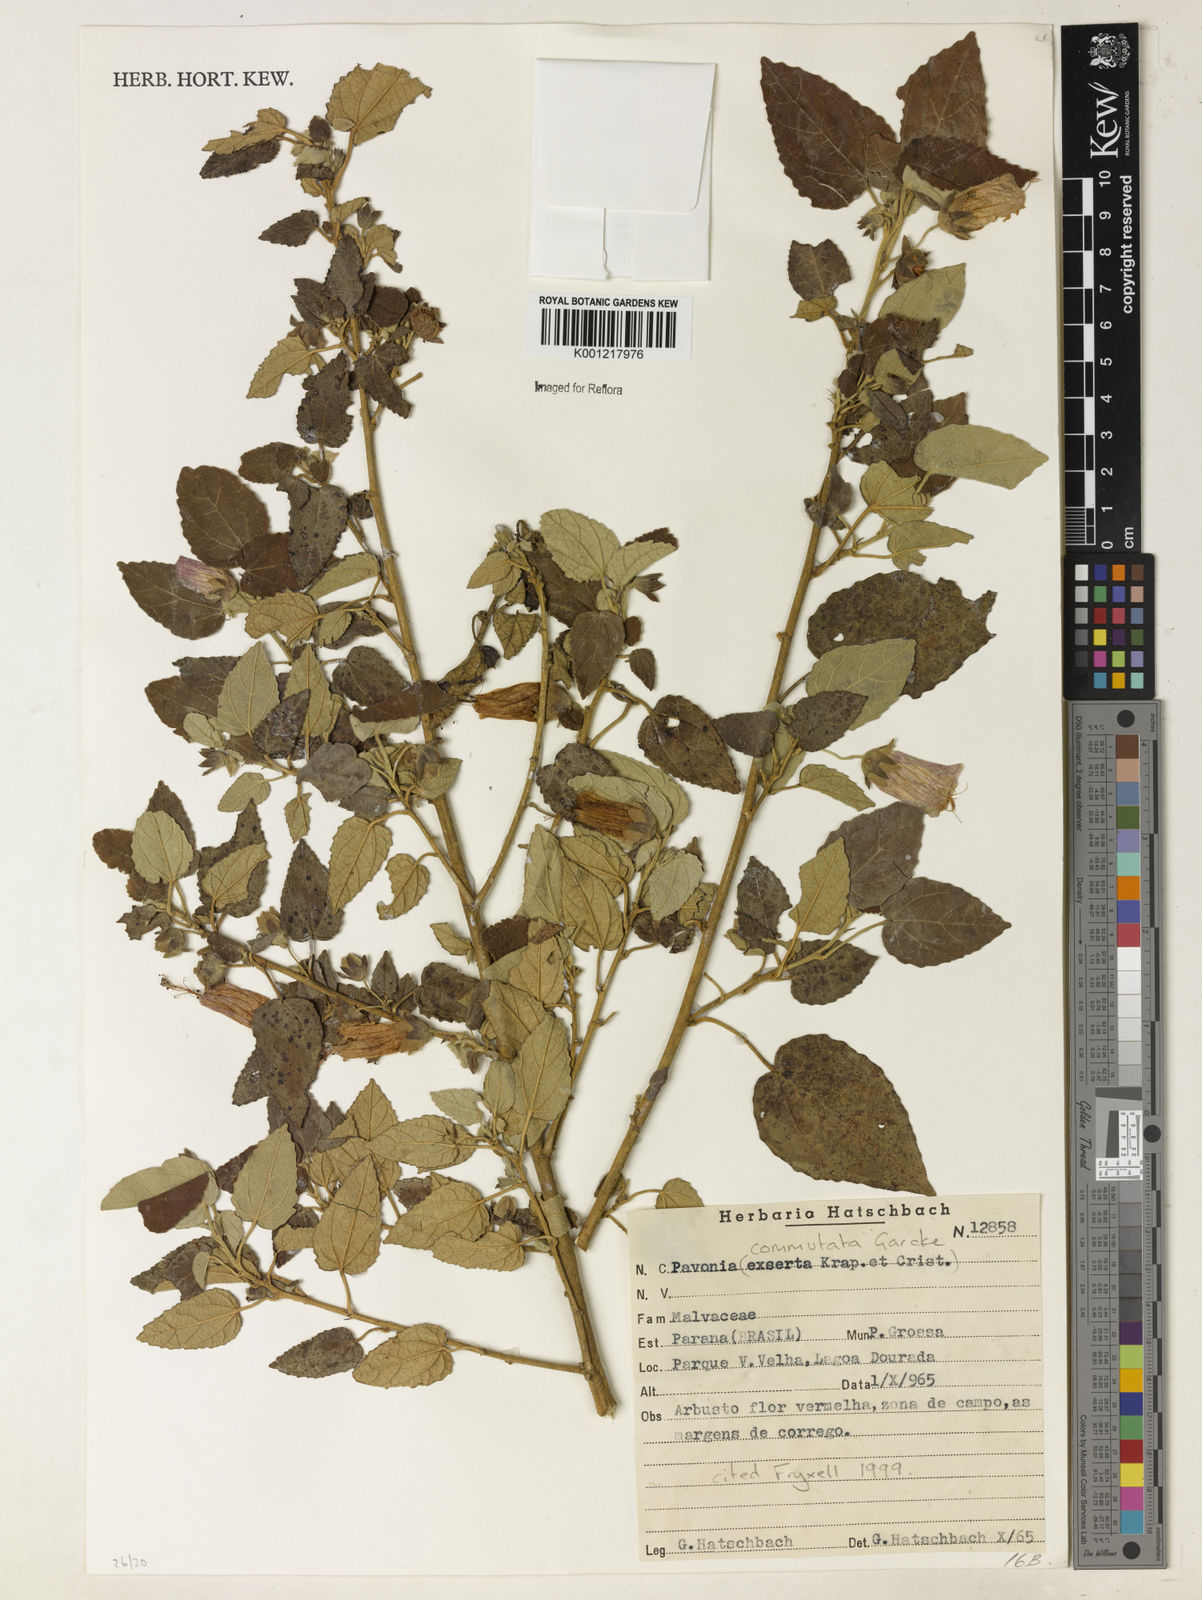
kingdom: Plantae
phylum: Tracheophyta
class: Magnoliopsida
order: Malvales
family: Malvaceae
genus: Pavonia
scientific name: Pavonia commutata
